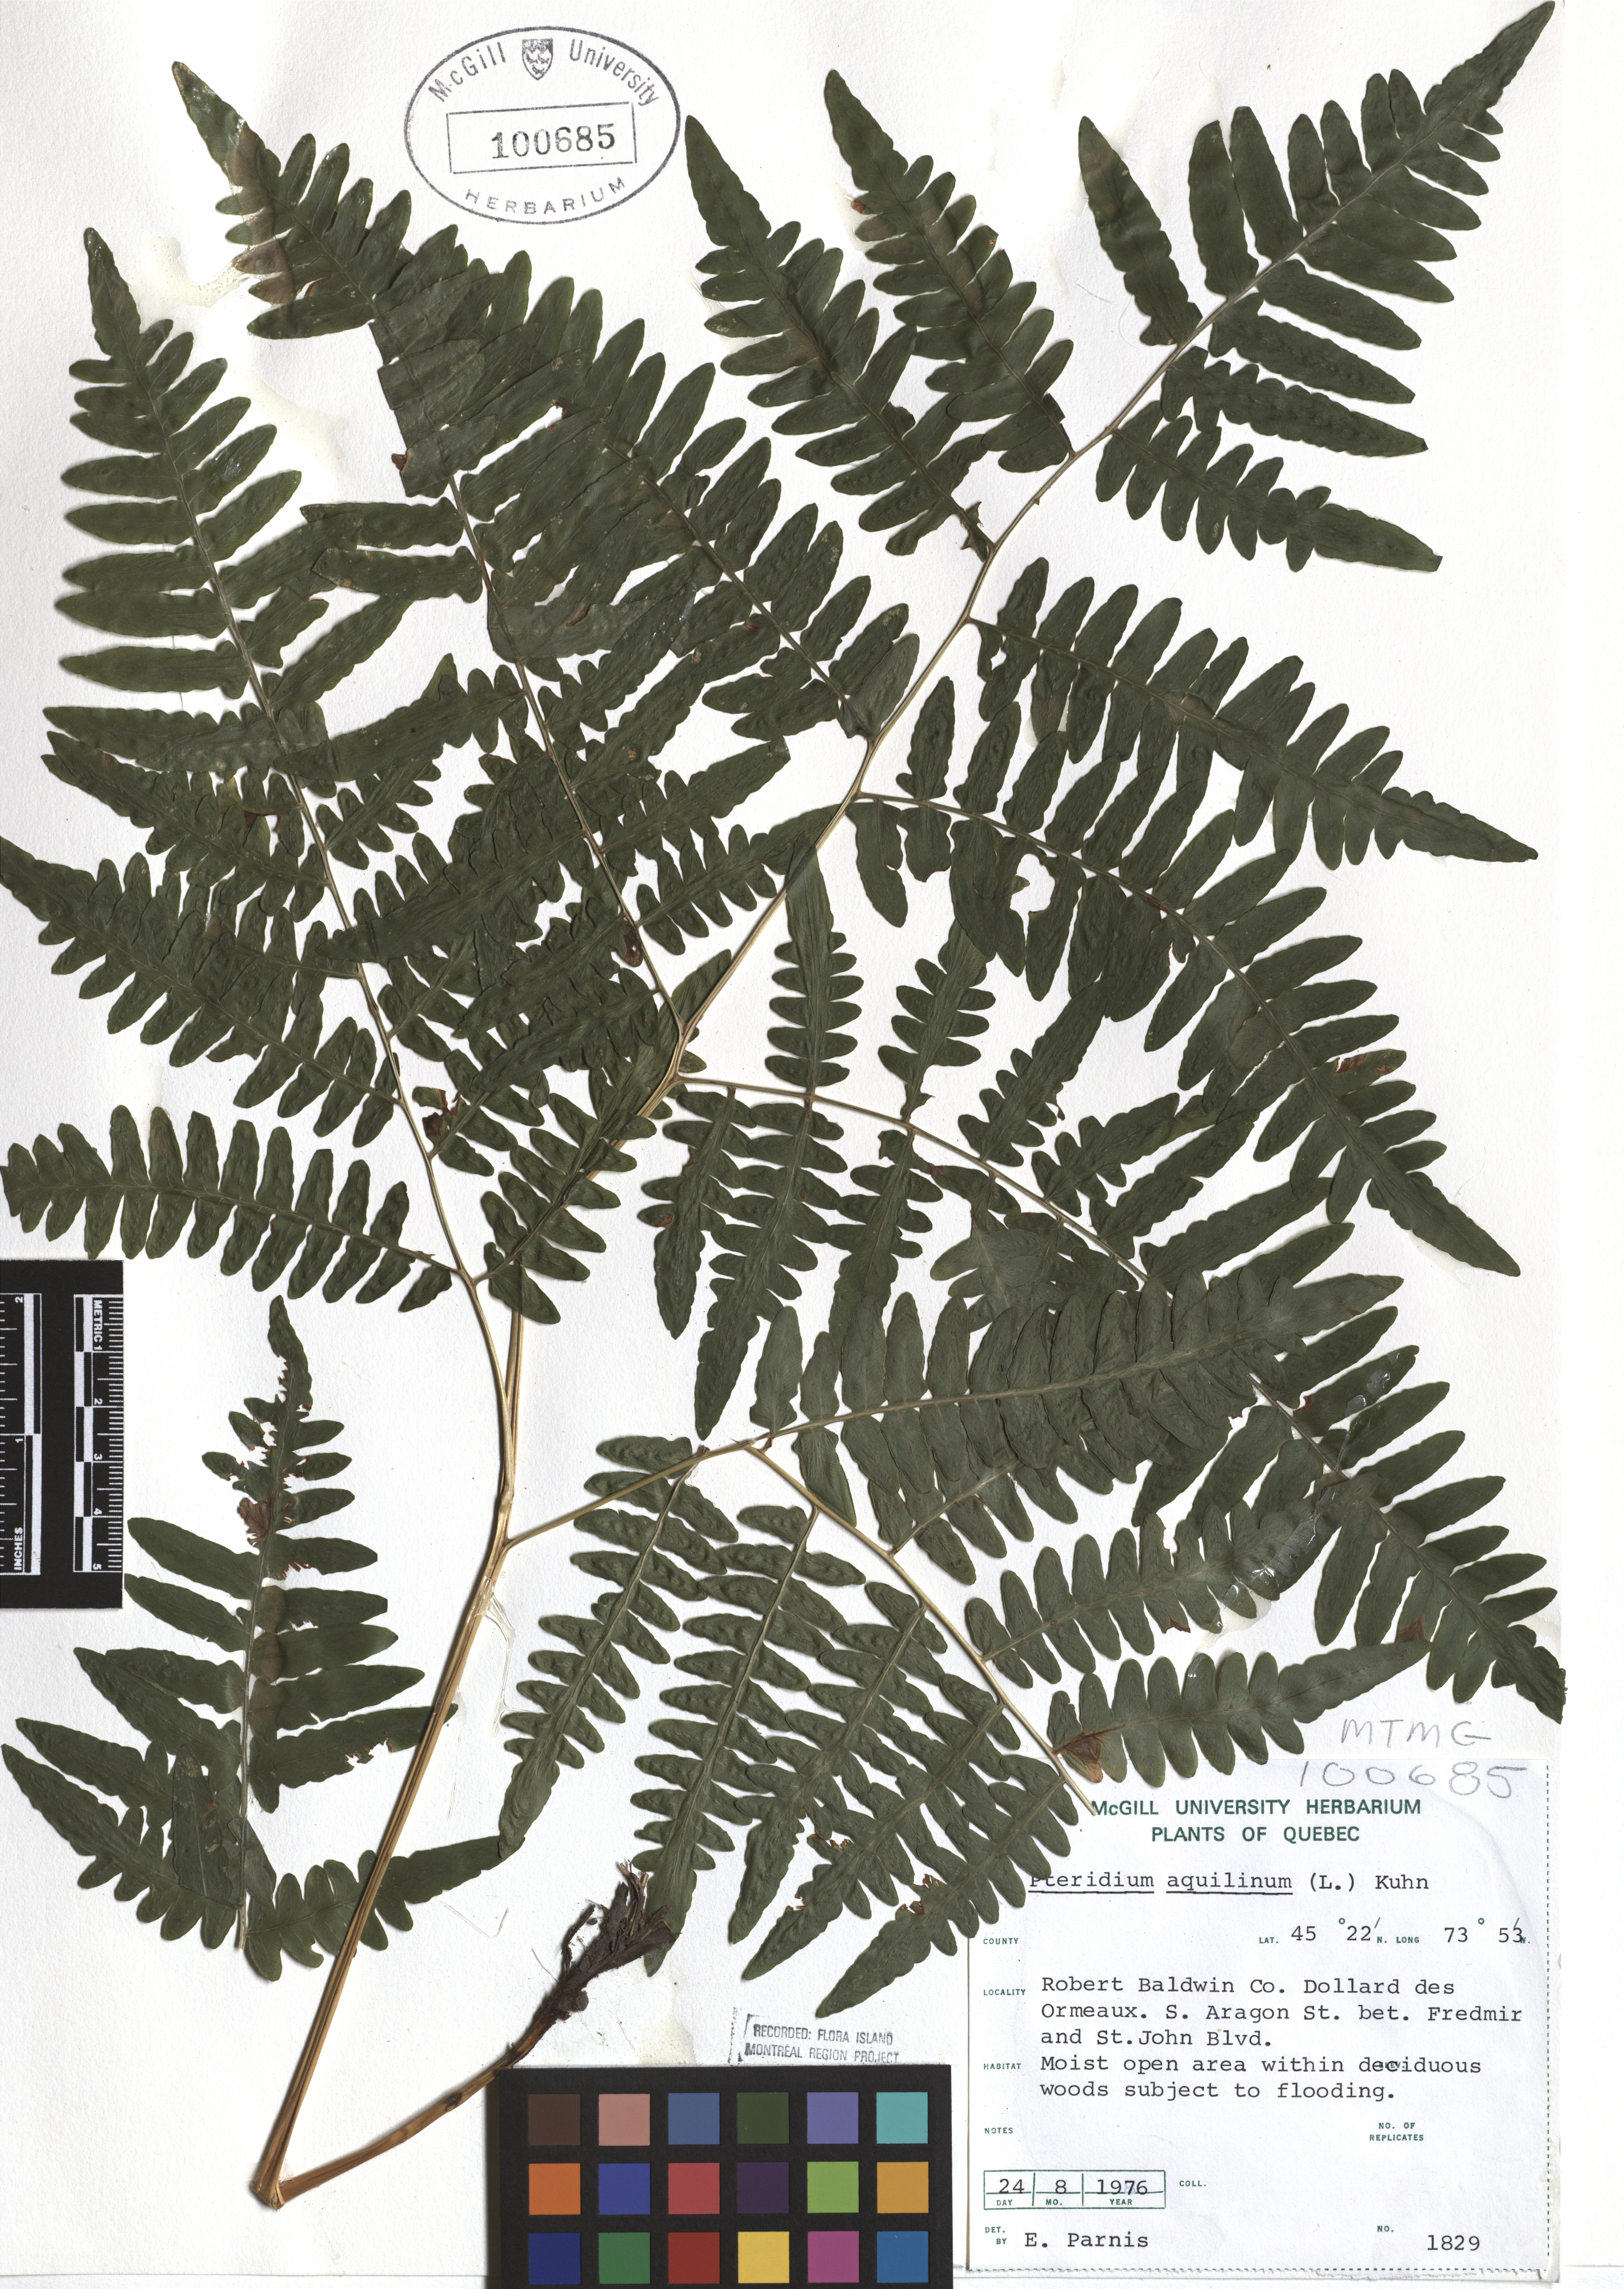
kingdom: Plantae
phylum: Tracheophyta
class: Polypodiopsida
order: Polypodiales
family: Dennstaedtiaceae
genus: Pteridium
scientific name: Pteridium aquilinum
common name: Bracken
